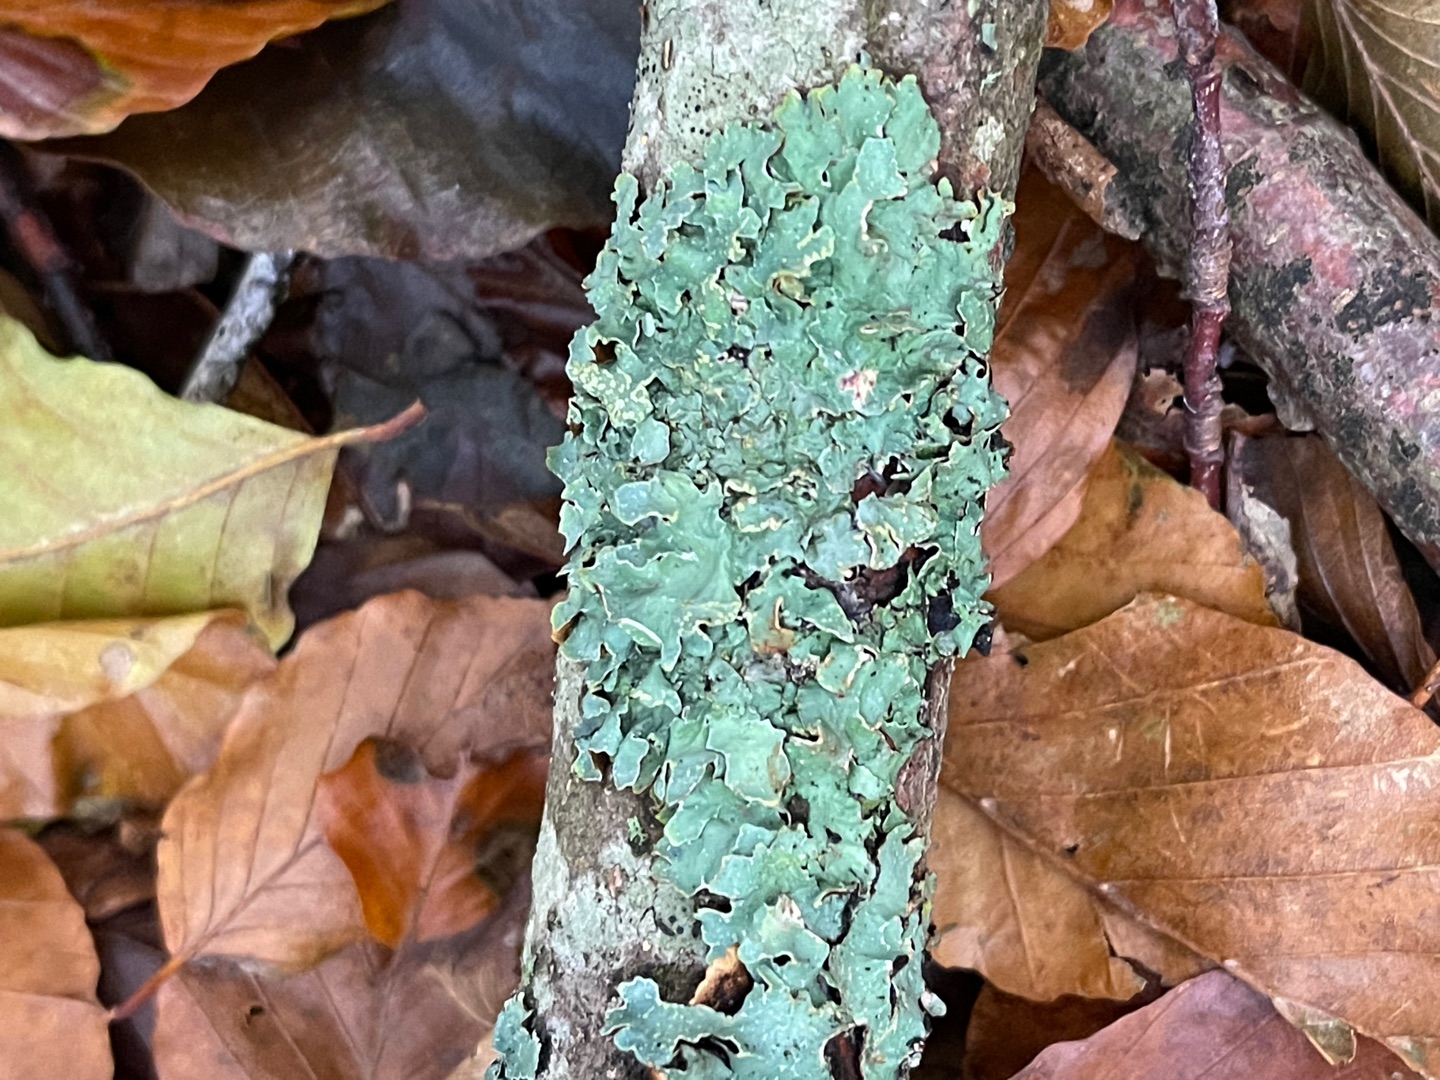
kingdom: Fungi
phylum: Ascomycota
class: Lecanoromycetes
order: Lecanorales
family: Parmeliaceae
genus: Parmelia
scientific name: Parmelia sulcata
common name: Rynket skållav
